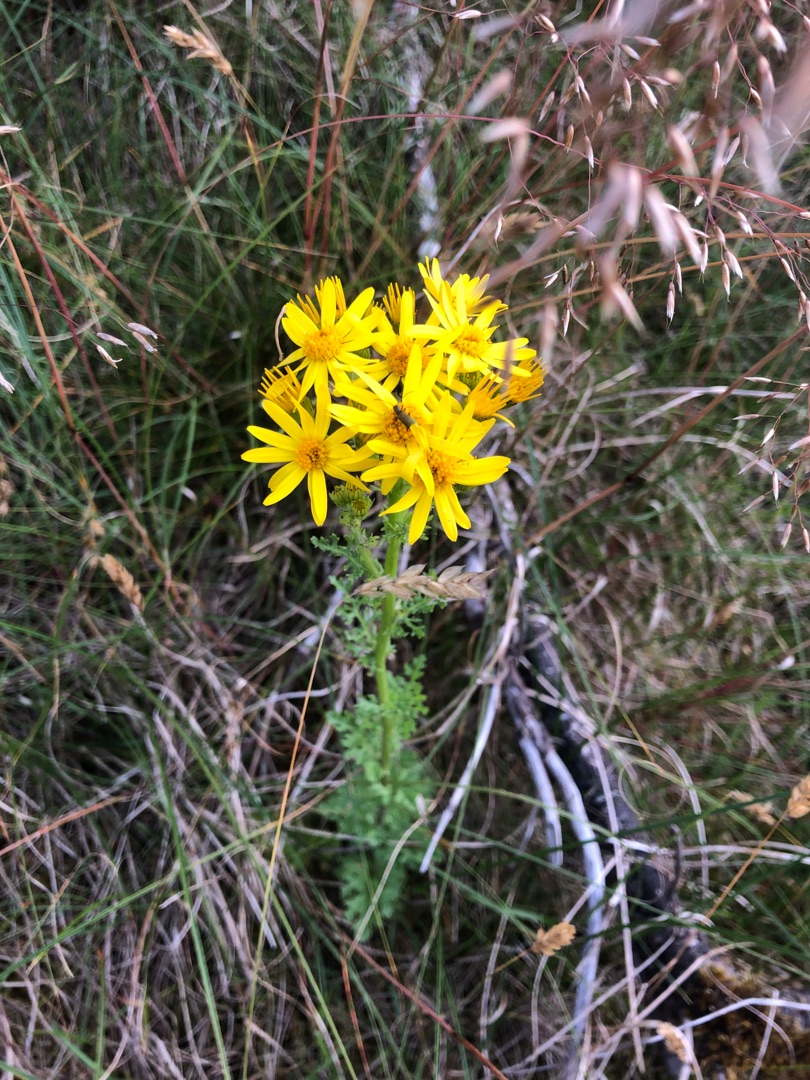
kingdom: Plantae
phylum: Tracheophyta
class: Magnoliopsida
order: Asterales
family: Asteraceae
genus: Jacobaea
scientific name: Jacobaea vulgaris
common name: Eng-brandbæger
